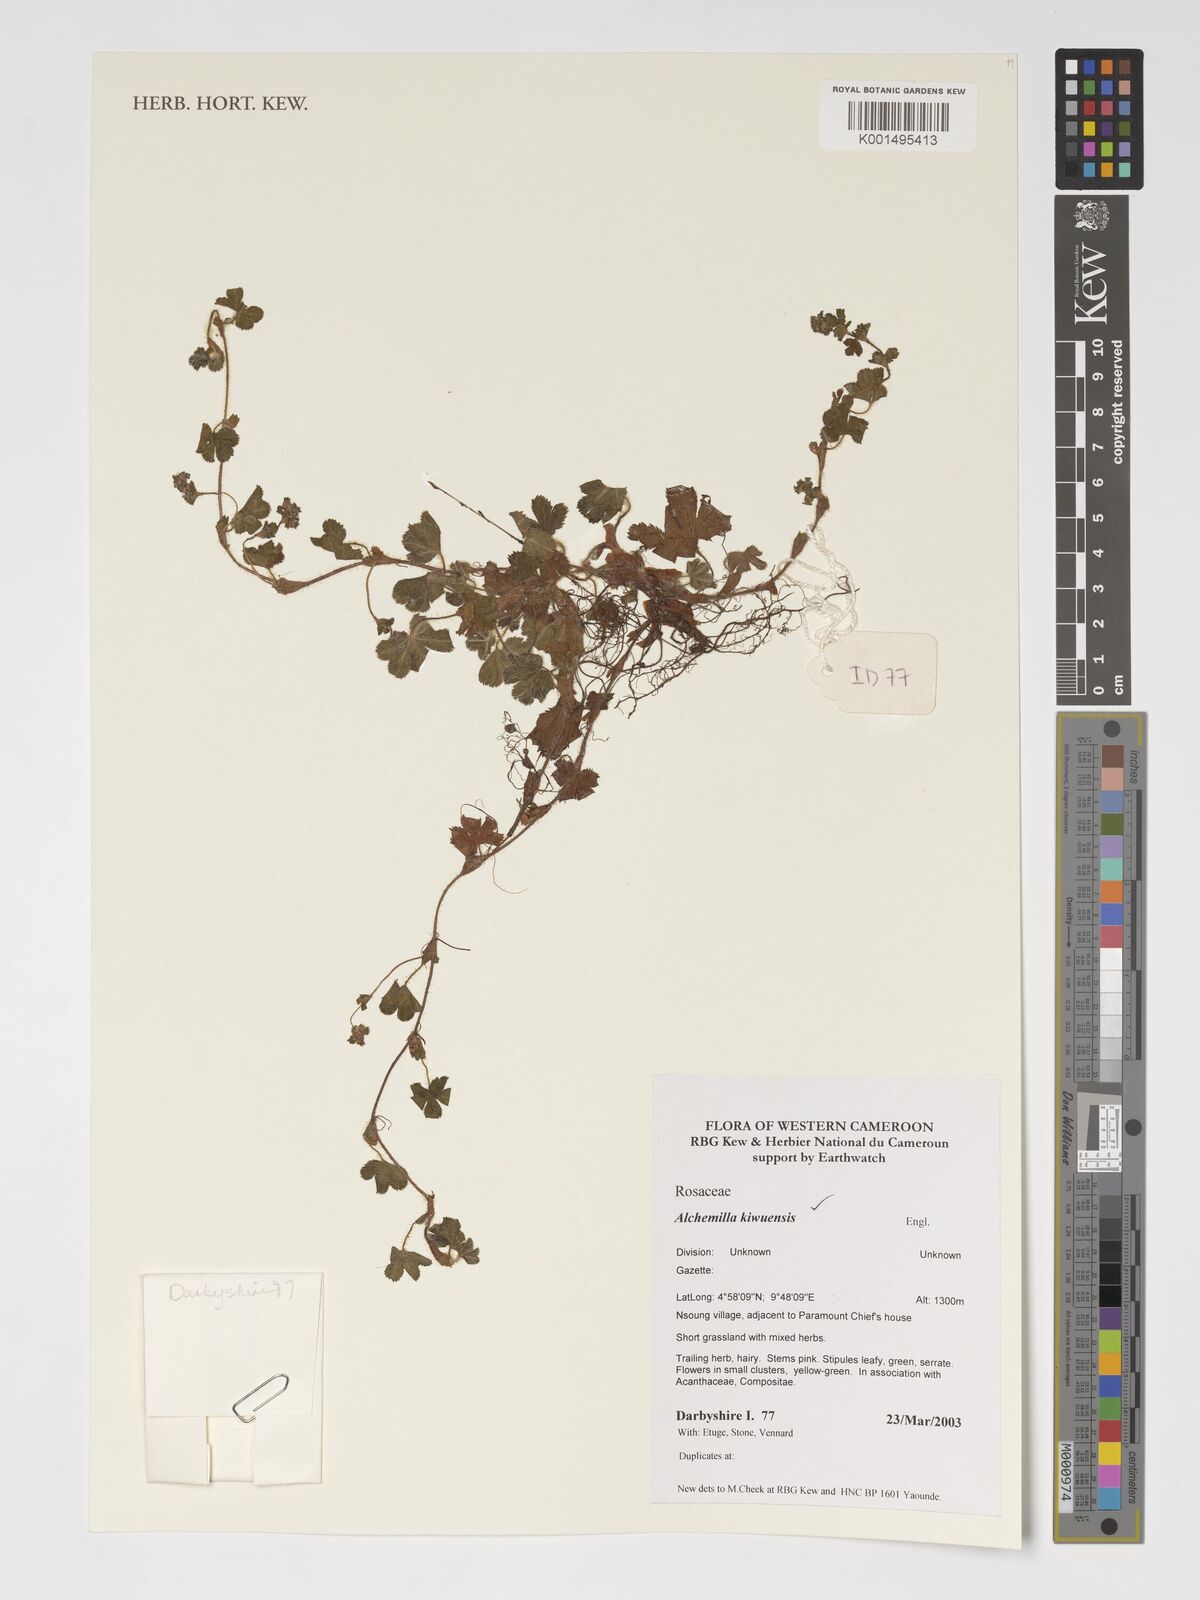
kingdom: Plantae
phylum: Tracheophyta
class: Magnoliopsida
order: Rosales
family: Rosaceae
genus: Alchemilla
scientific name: Alchemilla kiwuensis
